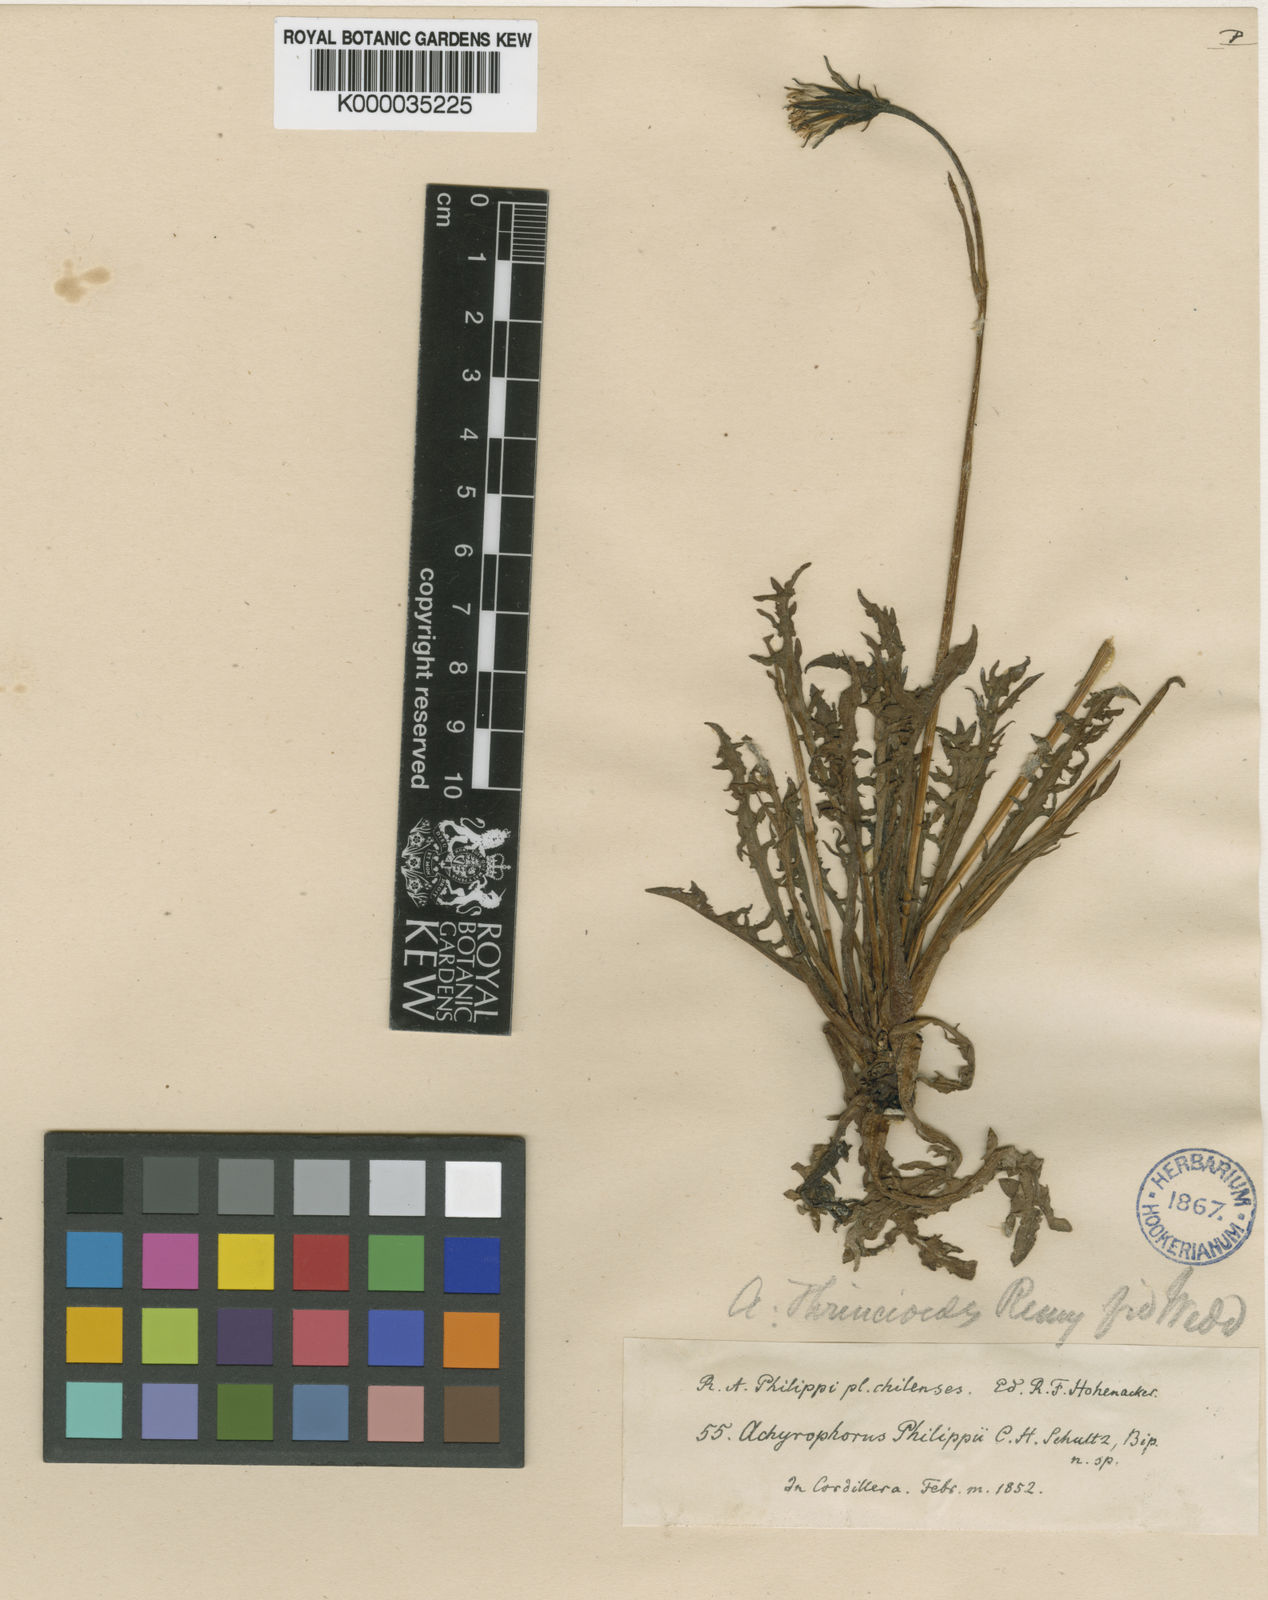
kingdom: Plantae
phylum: Tracheophyta
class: Magnoliopsida
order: Asterales
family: Asteraceae
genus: Hypochaeris
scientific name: Hypochaeris
